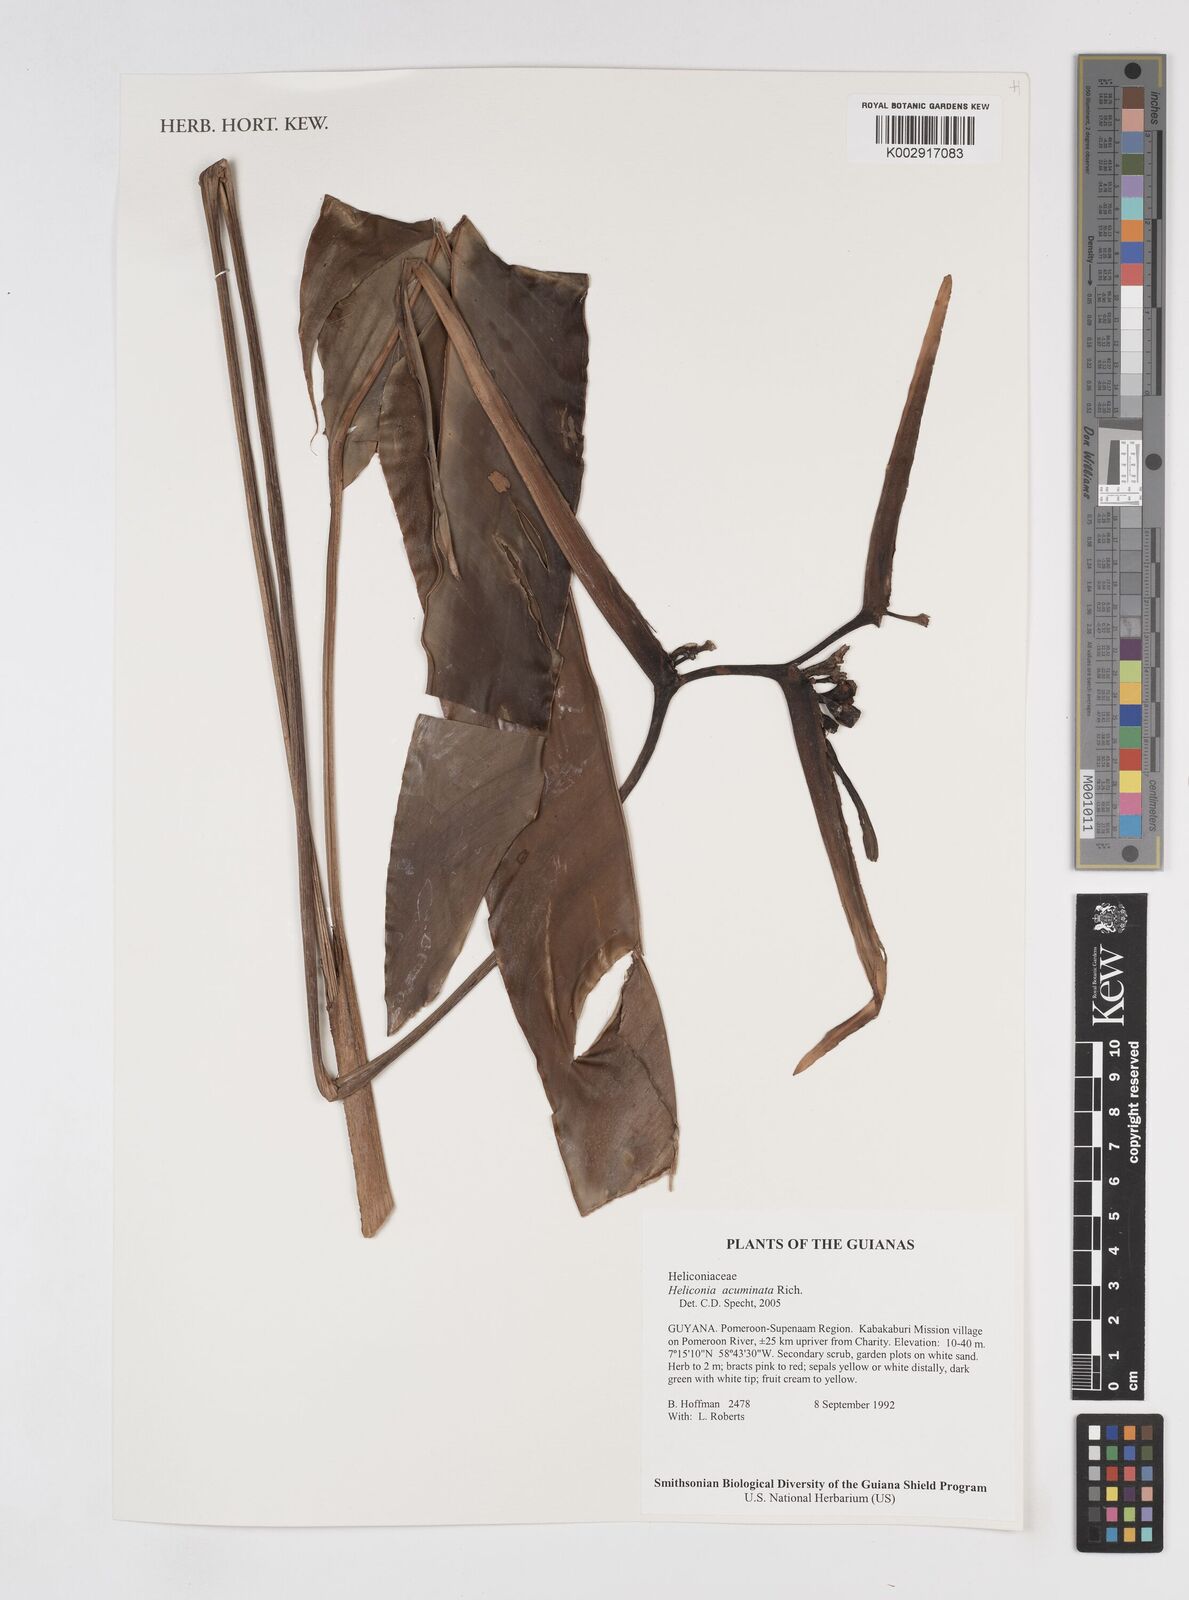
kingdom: Plantae
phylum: Tracheophyta
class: Liliopsida
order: Zingiberales
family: Heliconiaceae
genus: Heliconia
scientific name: Heliconia acuminata
